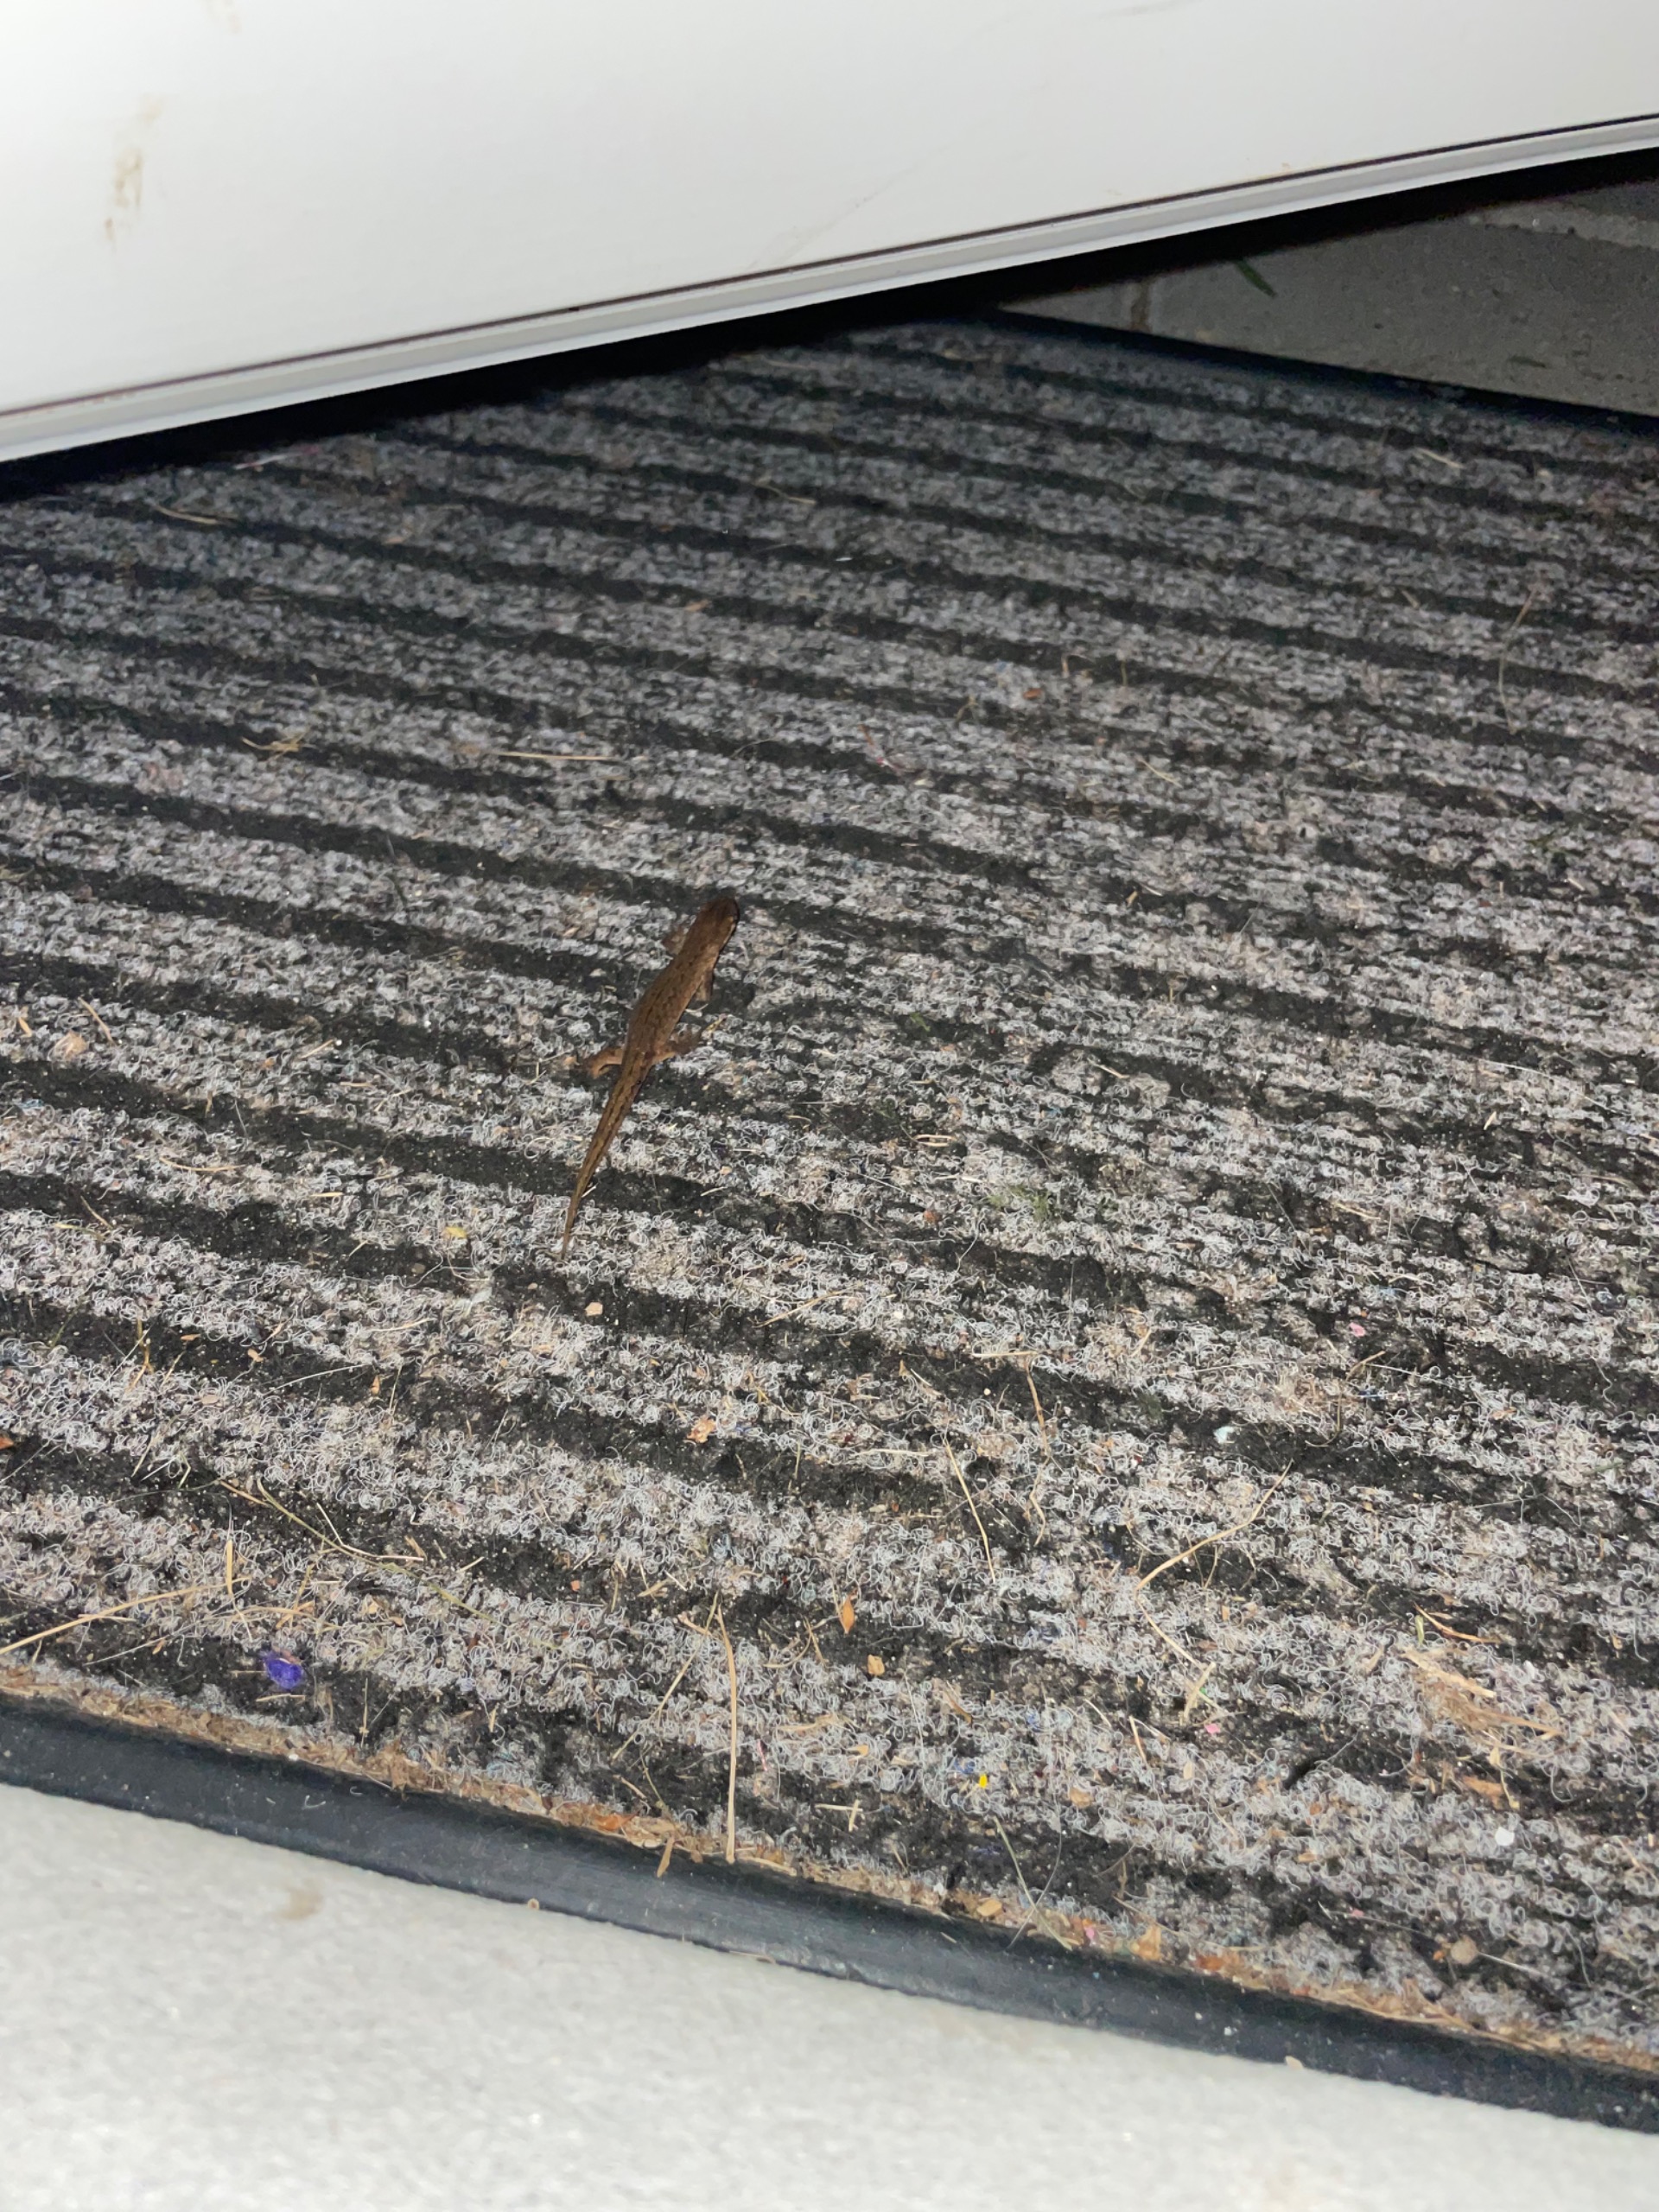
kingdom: Animalia
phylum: Chordata
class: Amphibia
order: Caudata
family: Salamandridae
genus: Lissotriton
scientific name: Lissotriton vulgaris
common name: Lille vandsalamander
